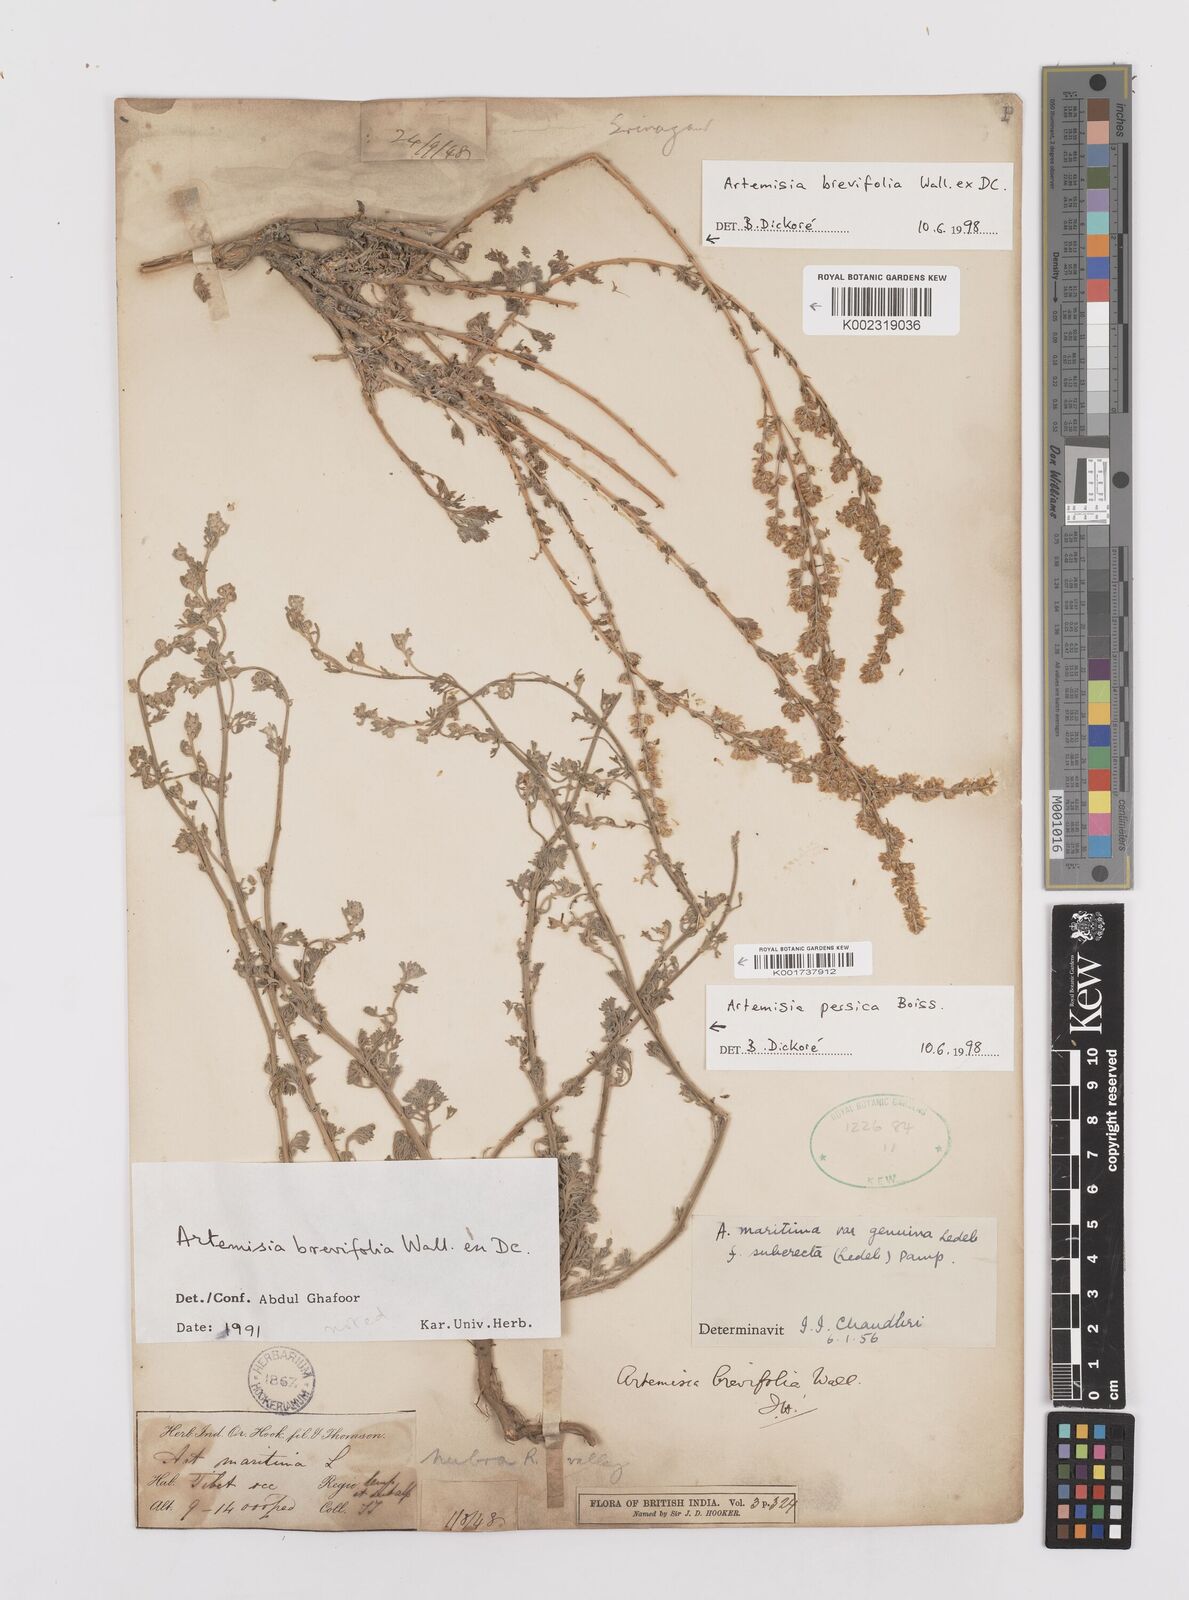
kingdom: Plantae
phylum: Tracheophyta
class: Magnoliopsida
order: Asterales
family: Asteraceae
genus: Artemisia
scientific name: Artemisia brevifolia
